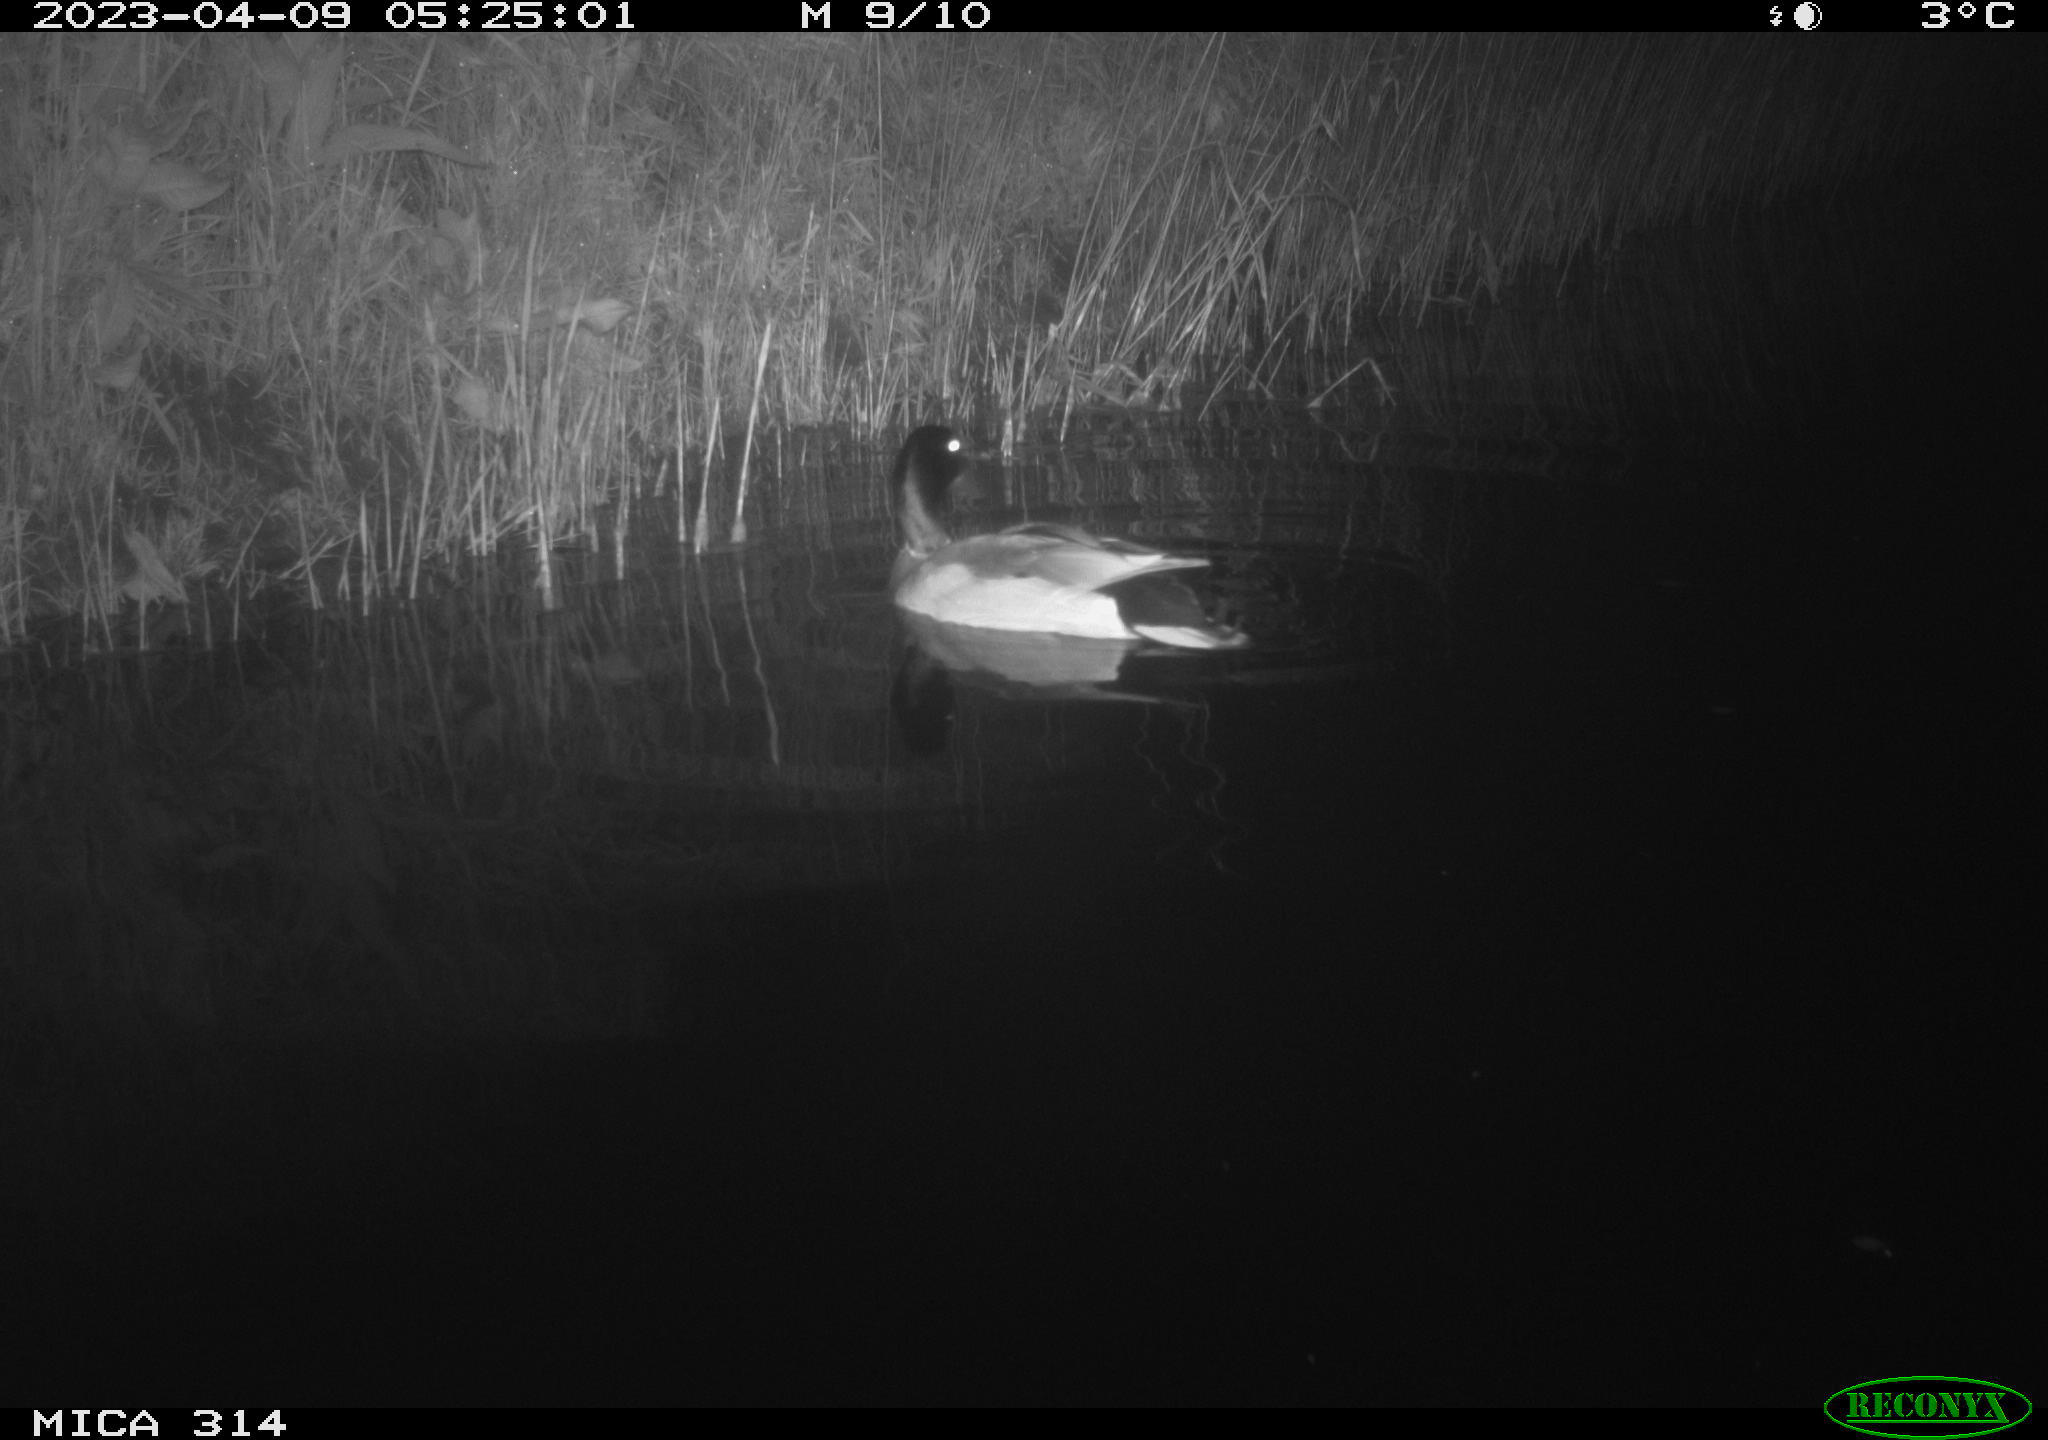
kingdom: Animalia
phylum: Chordata
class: Aves
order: Anseriformes
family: Anatidae
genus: Anas
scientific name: Anas
